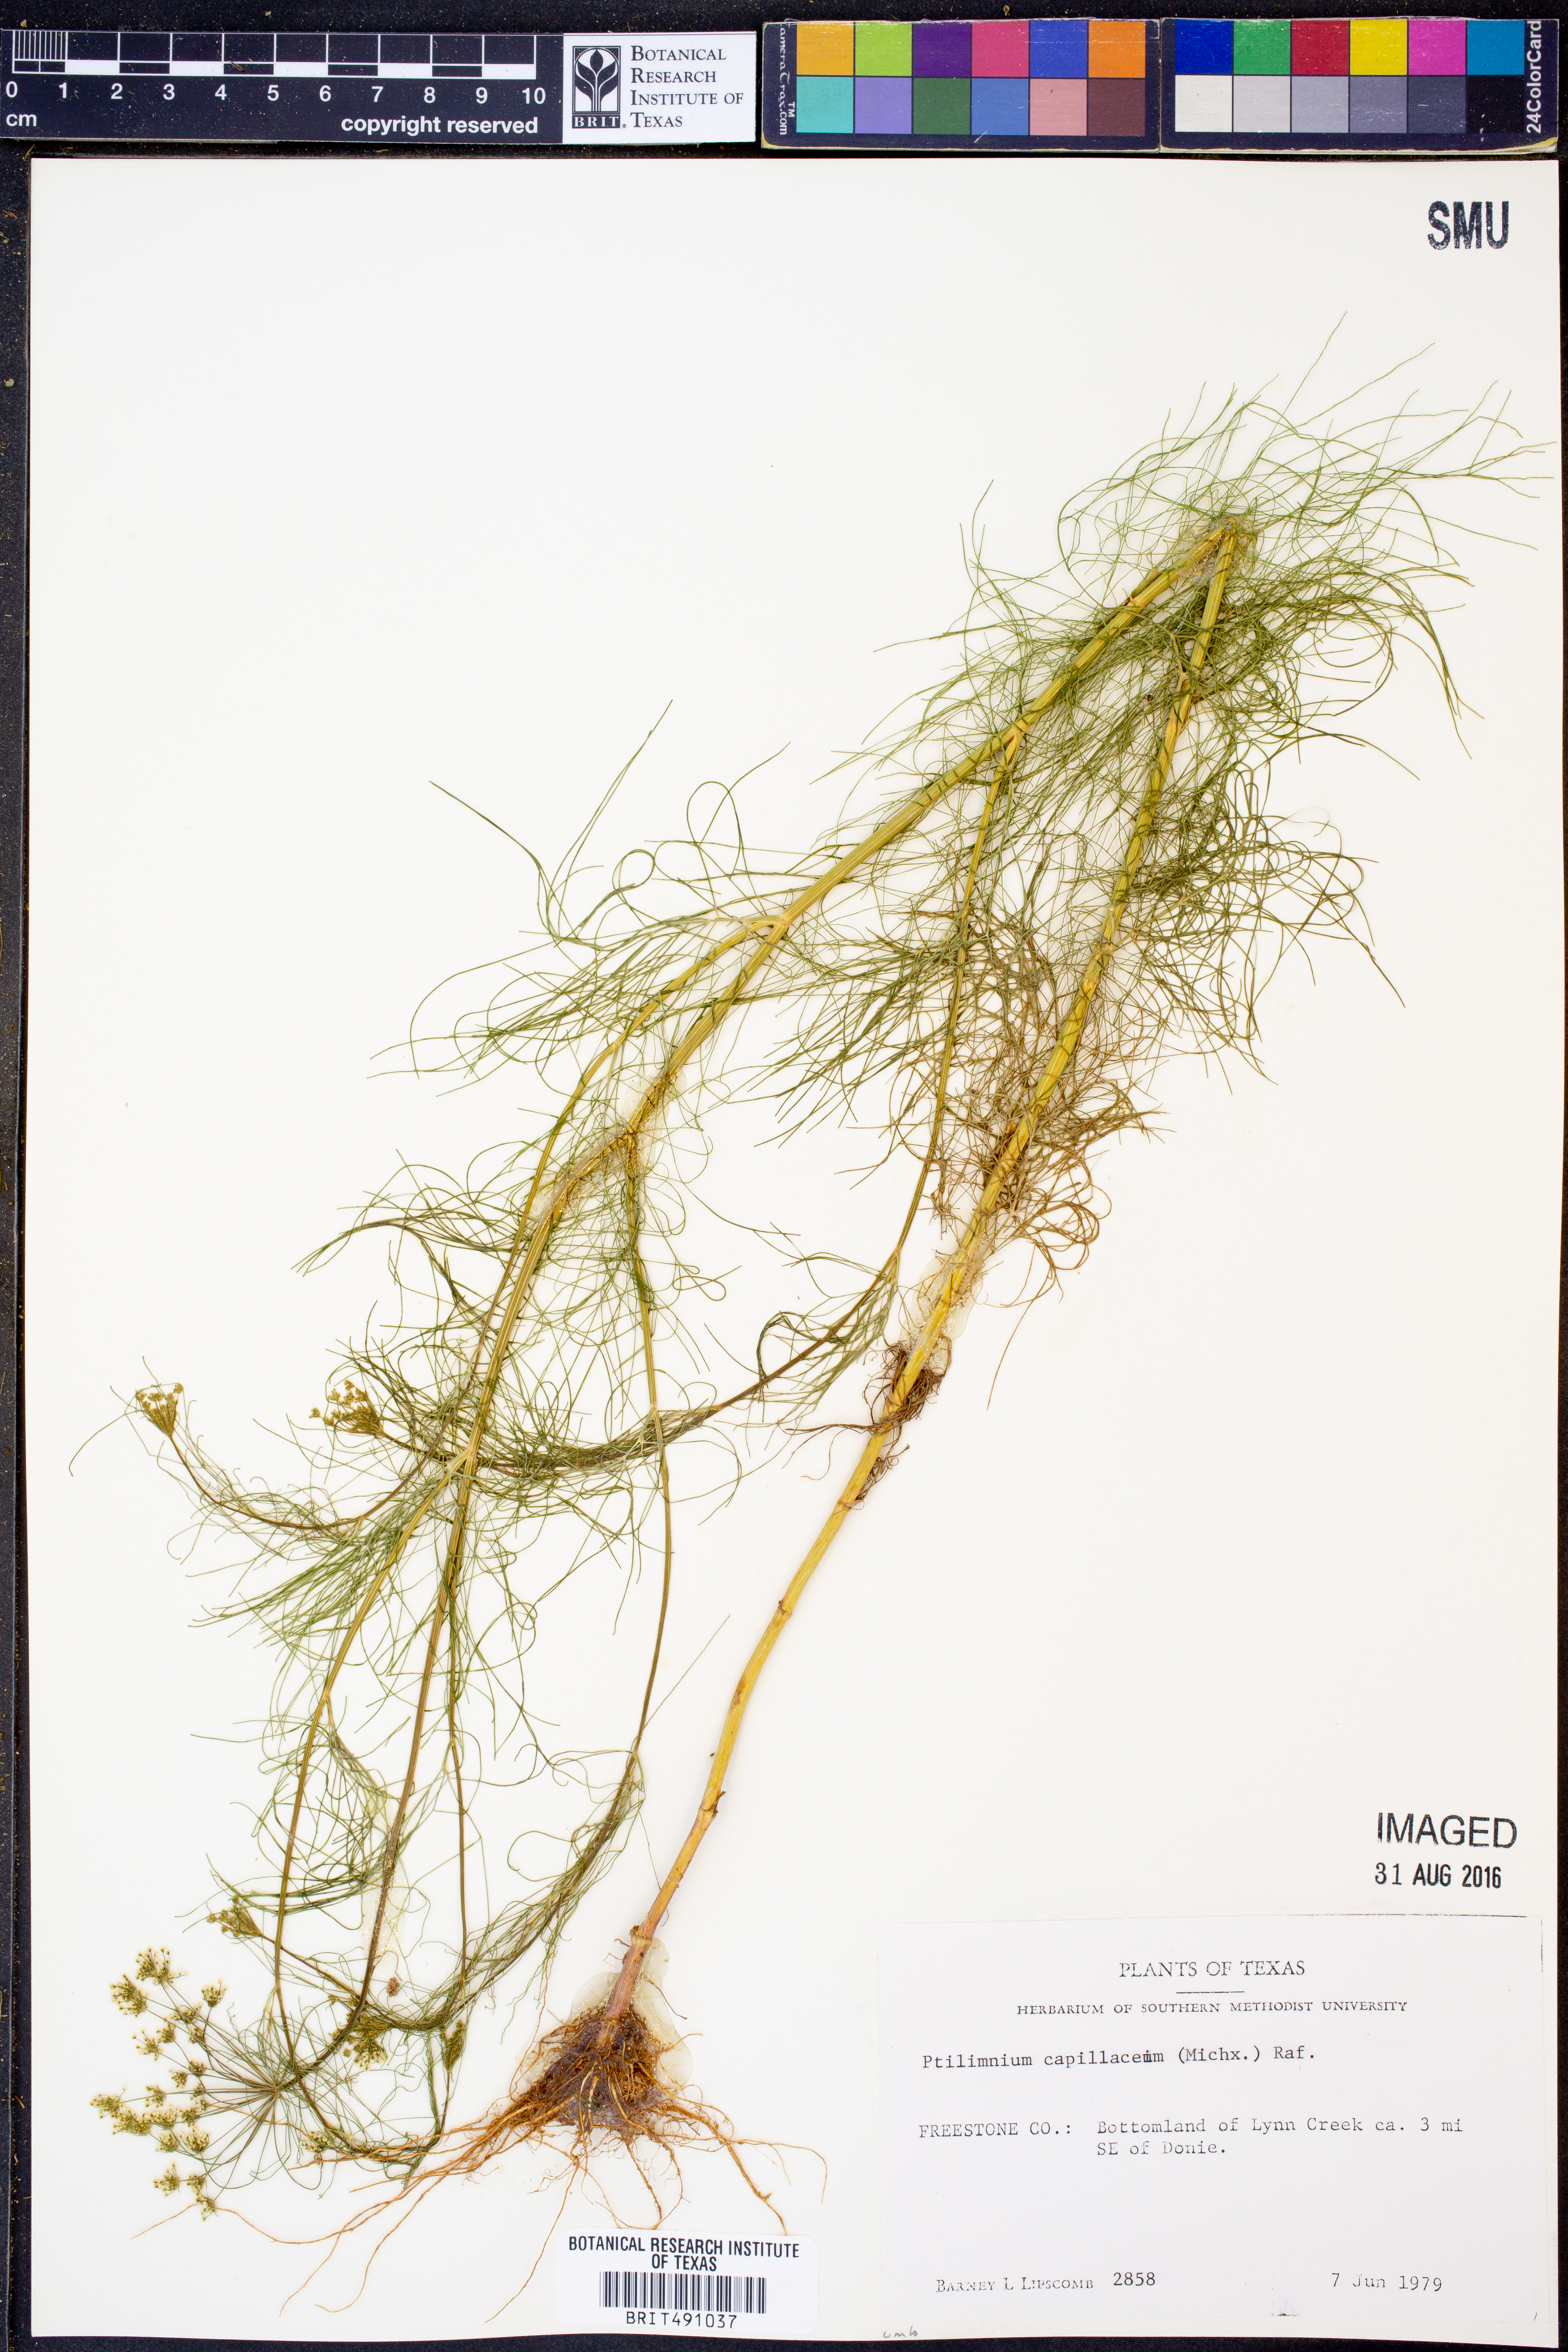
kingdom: Plantae
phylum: Tracheophyta
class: Magnoliopsida
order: Apiales
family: Apiaceae
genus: Ptilimnium
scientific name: Ptilimnium nuttallii
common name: Ozark bishop's-weed
